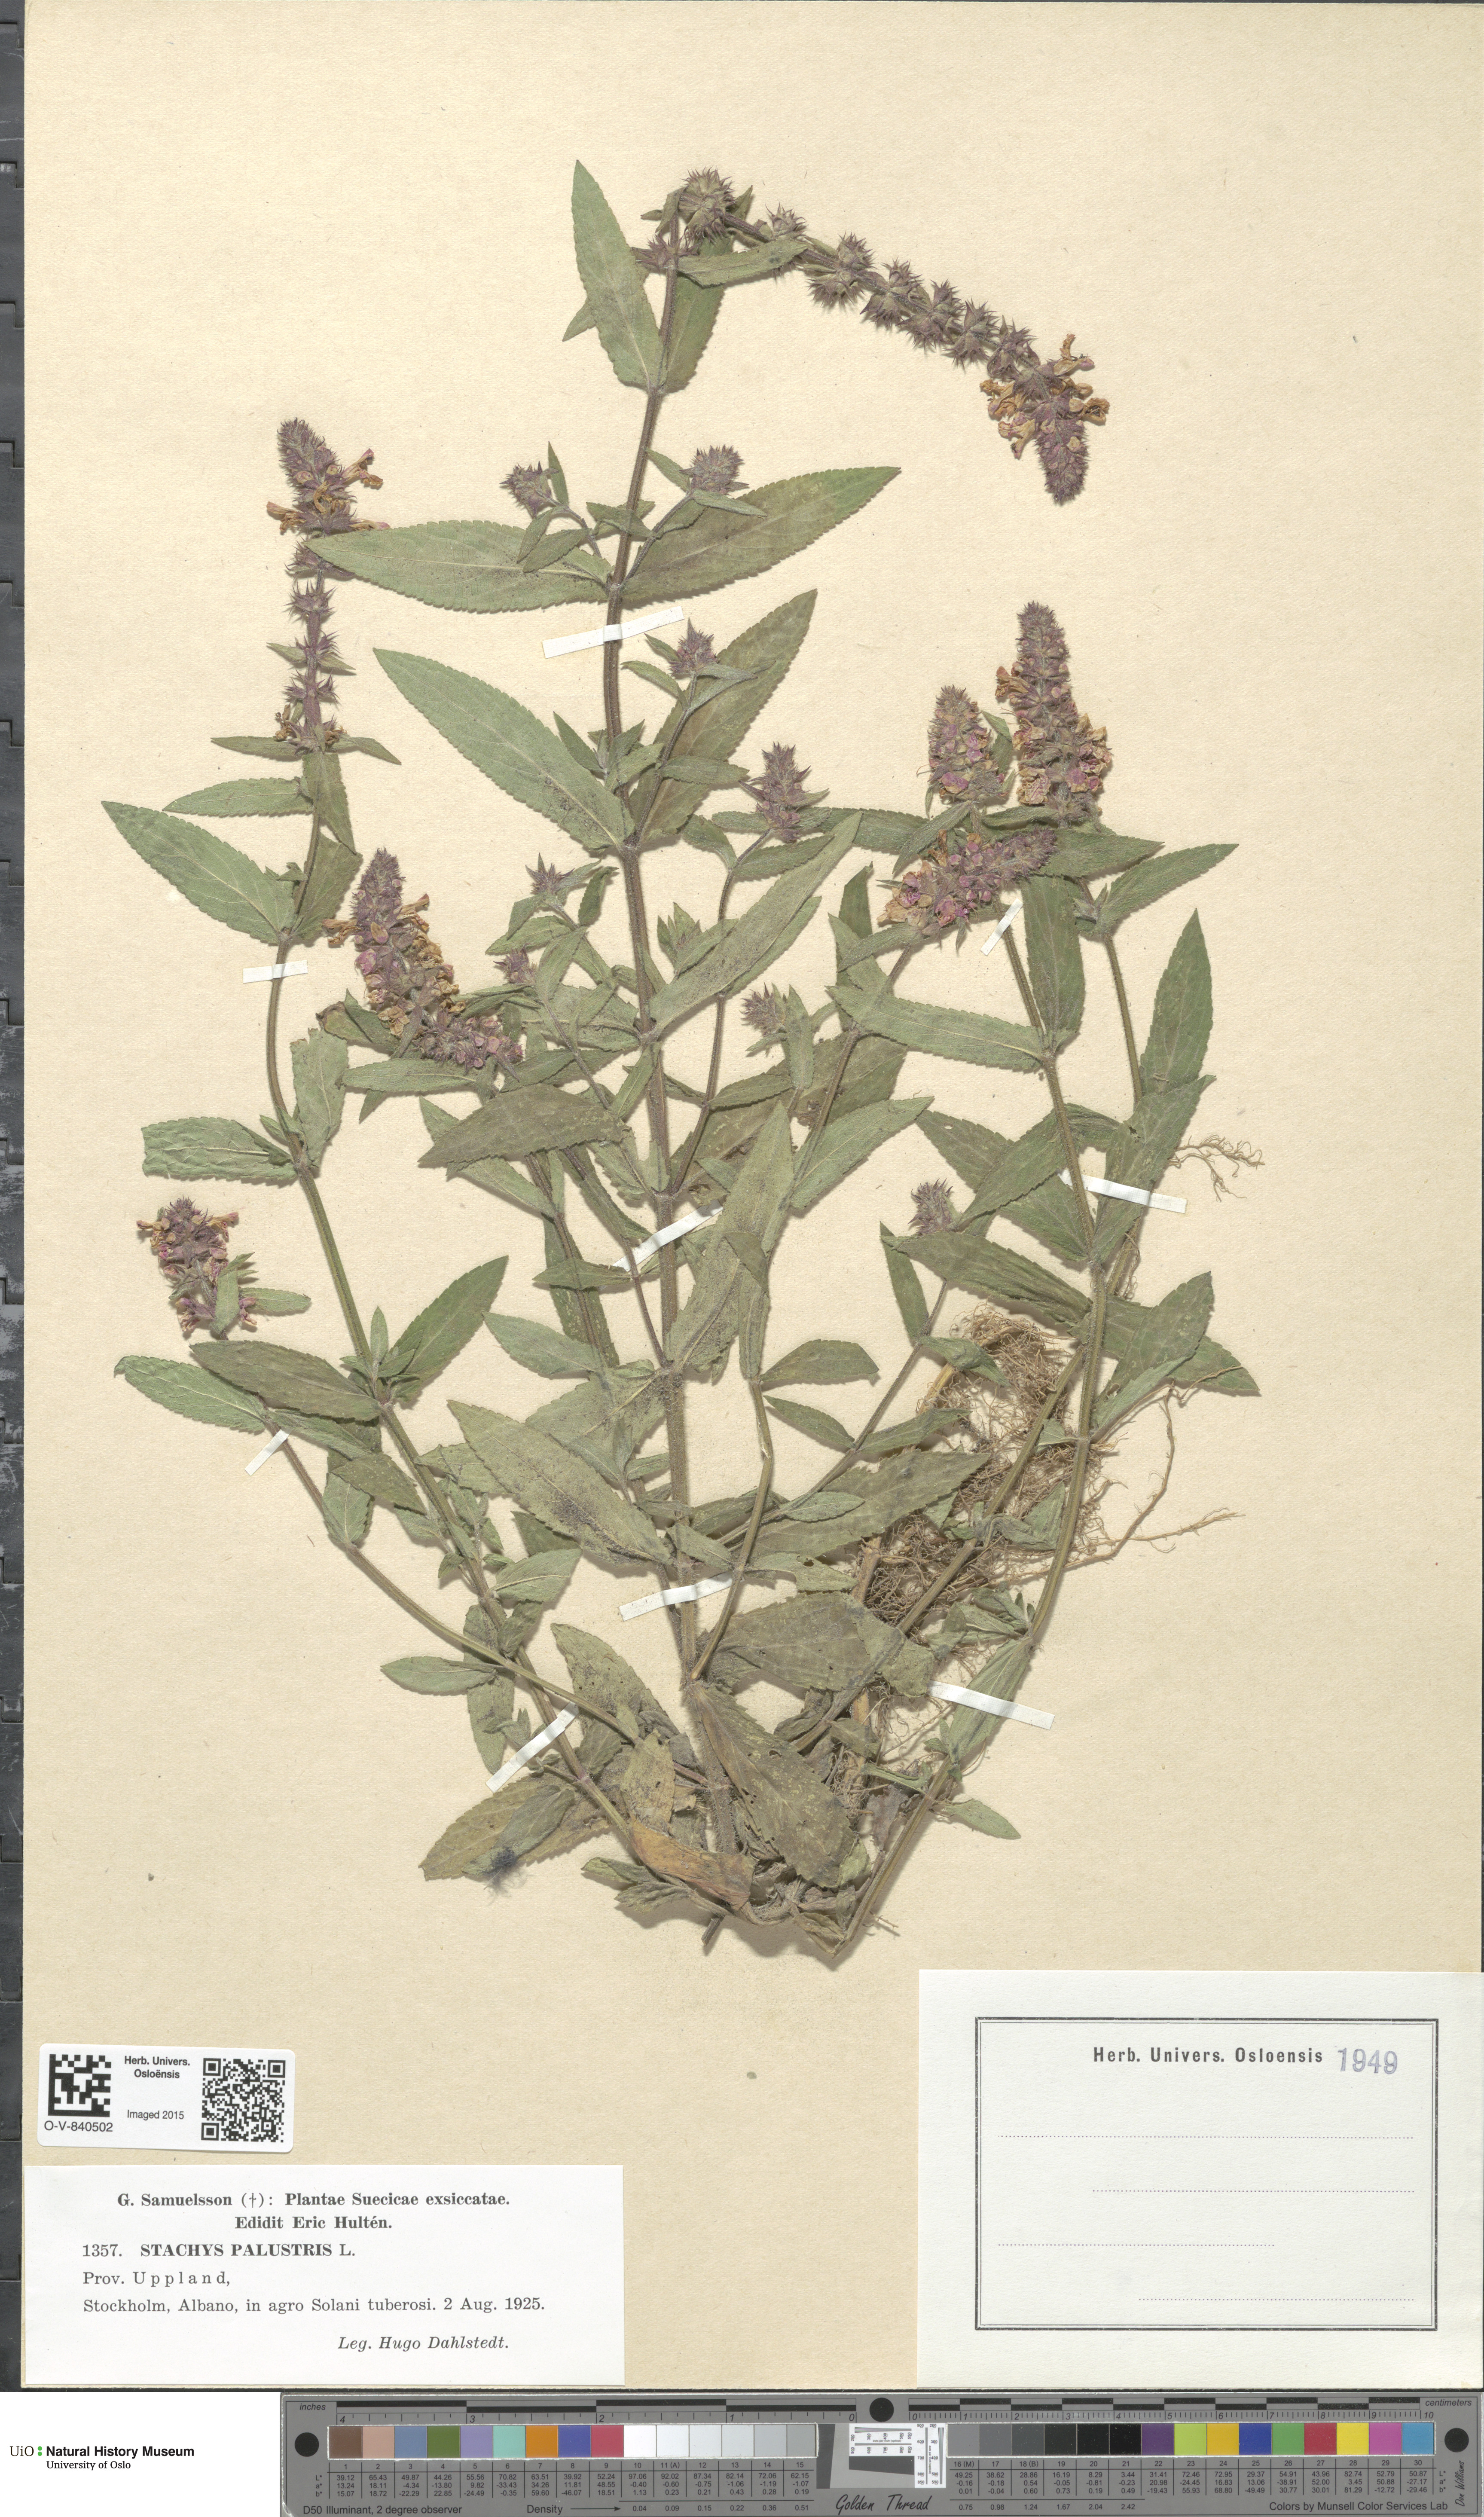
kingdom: Plantae
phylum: Tracheophyta
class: Magnoliopsida
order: Lamiales
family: Lamiaceae
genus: Stachys
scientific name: Stachys palustris
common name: Marsh woundwort
